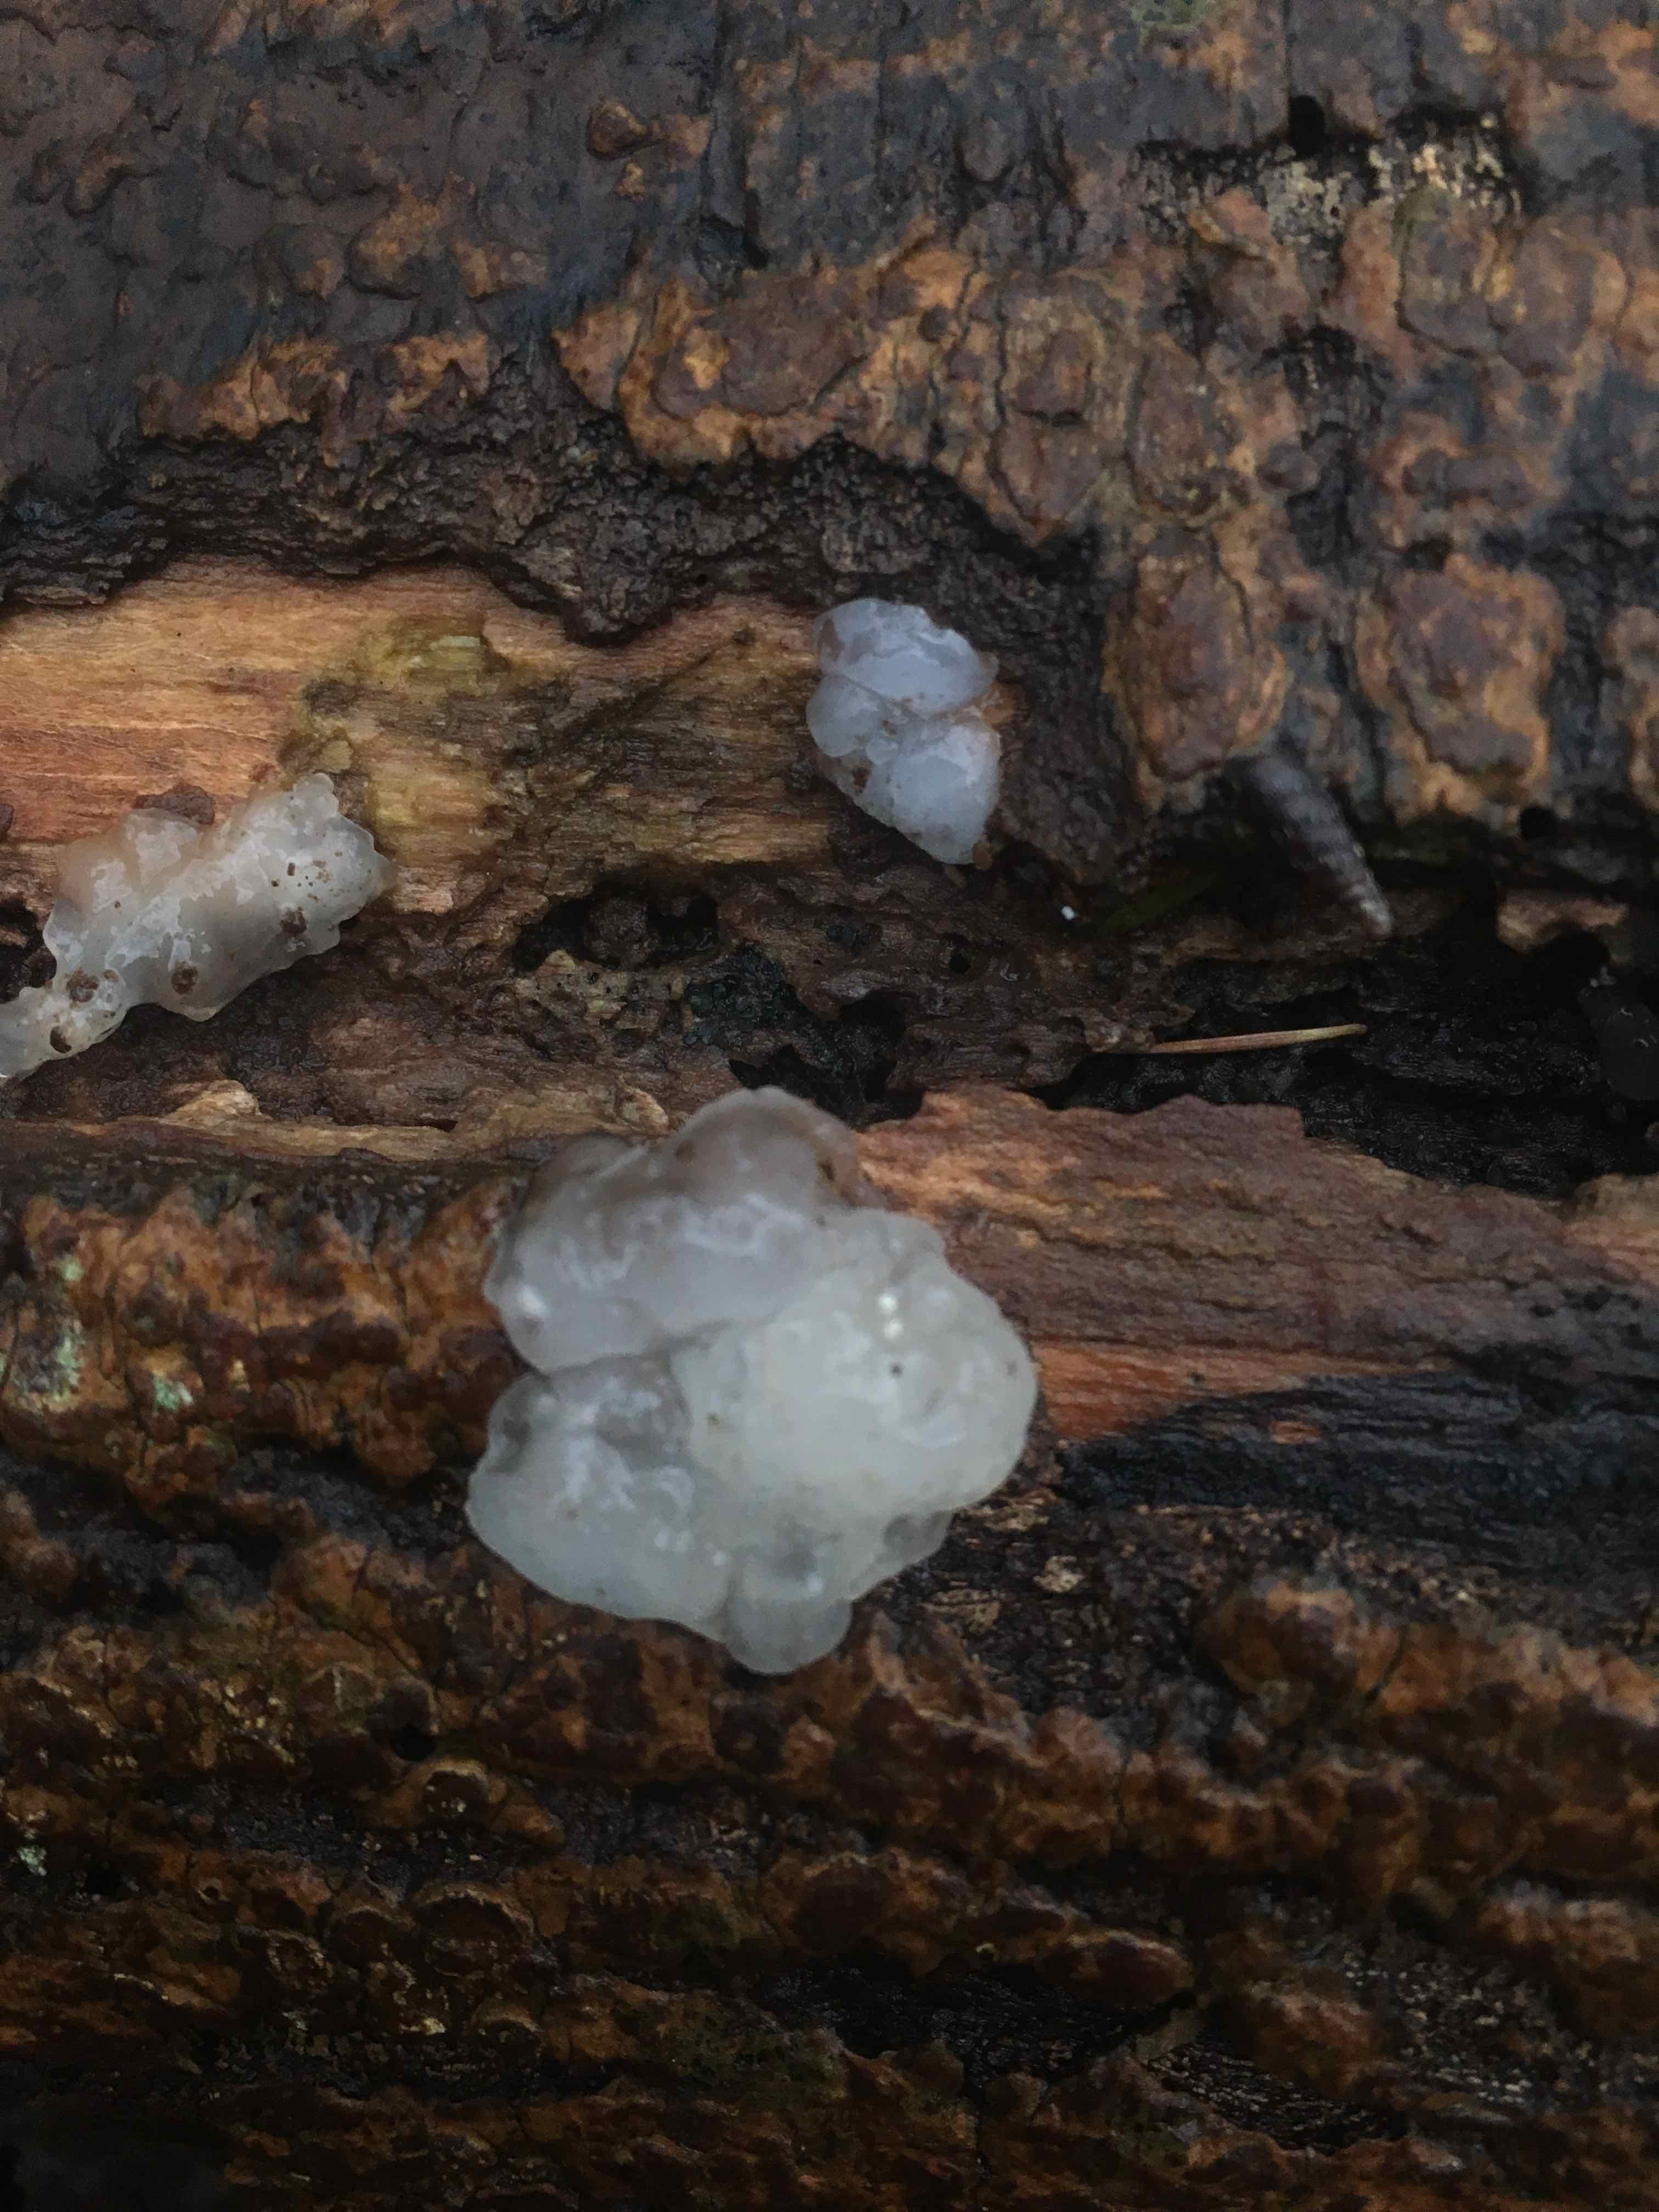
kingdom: Fungi
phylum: Basidiomycota
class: Agaricomycetes
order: Auriculariales
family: Hyaloriaceae
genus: Myxarium
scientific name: Myxarium nucleatum
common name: klar bævretop
